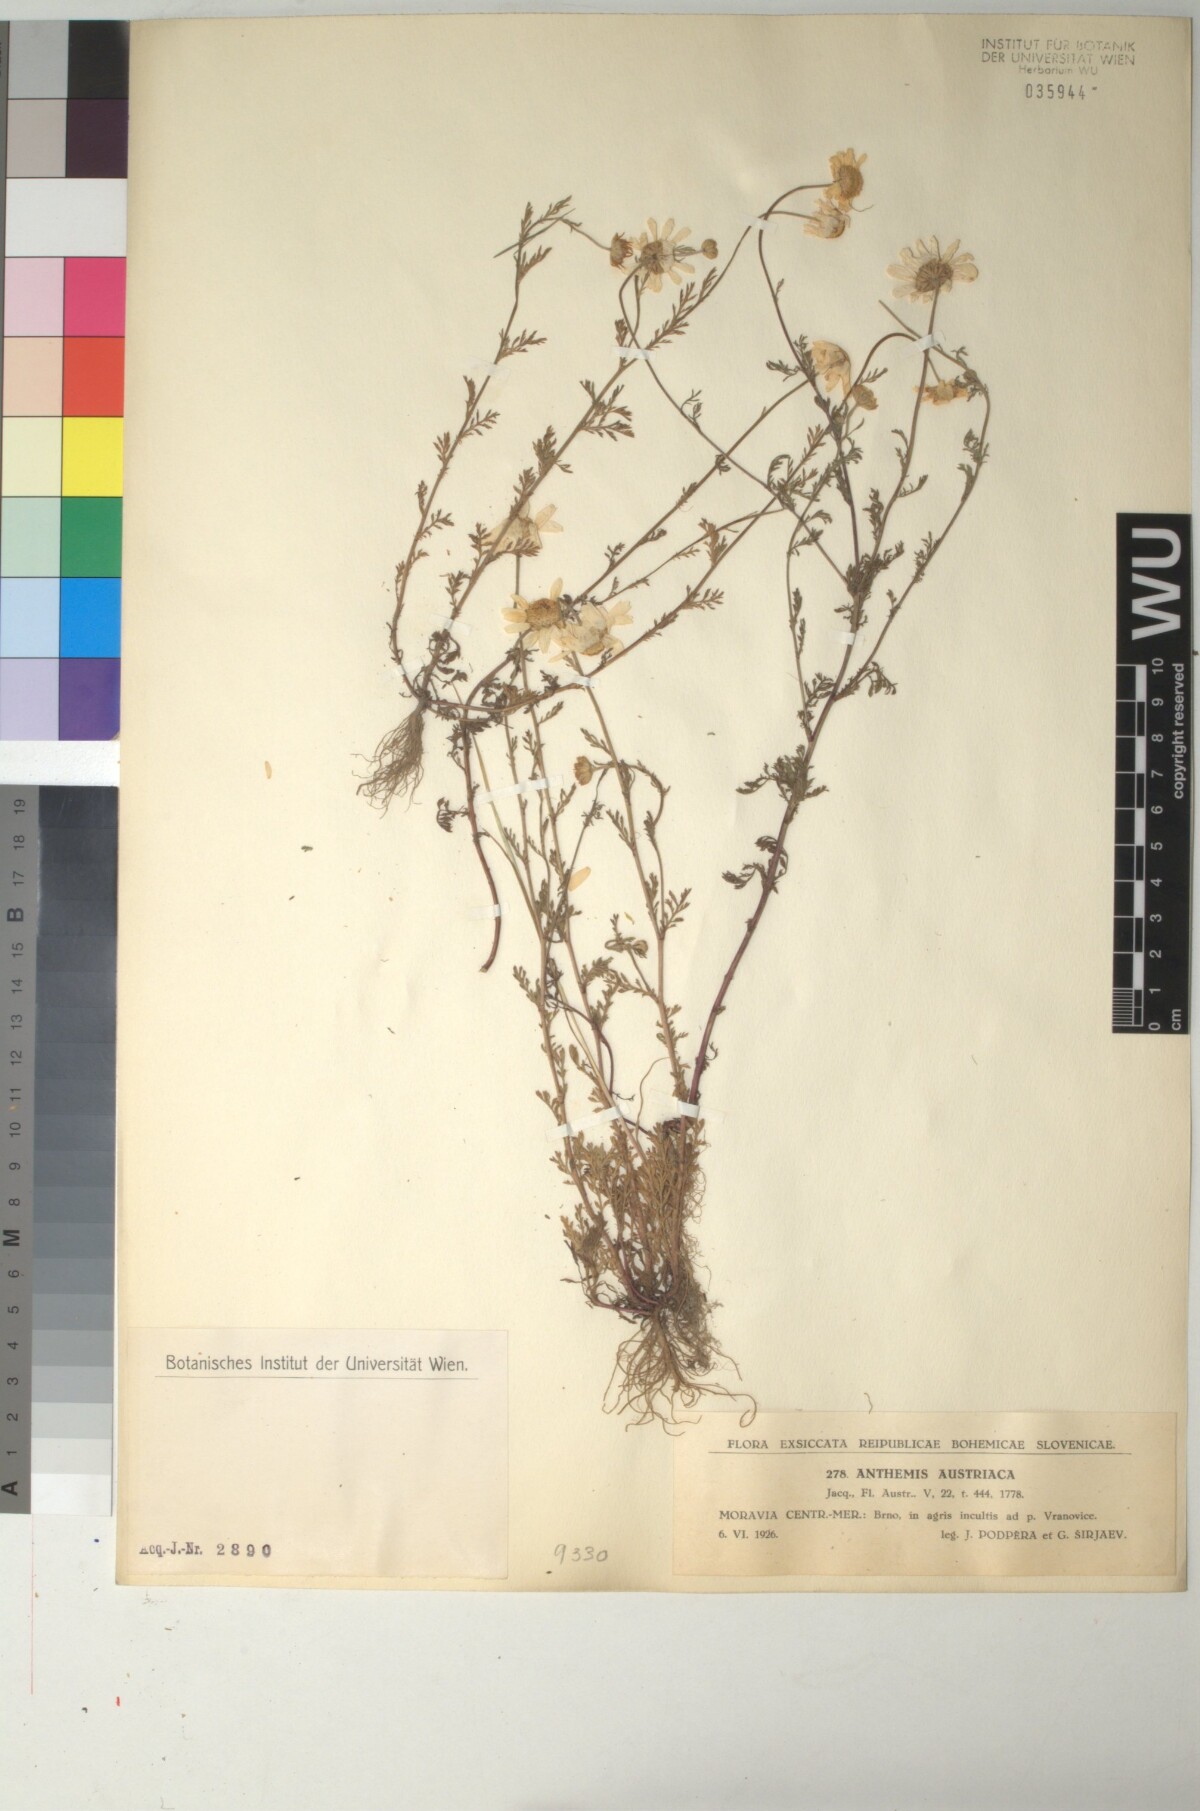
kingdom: Plantae
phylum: Tracheophyta
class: Magnoliopsida
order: Asterales
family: Asteraceae
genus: Cota
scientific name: Cota austriaca
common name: Austrian chamomile
